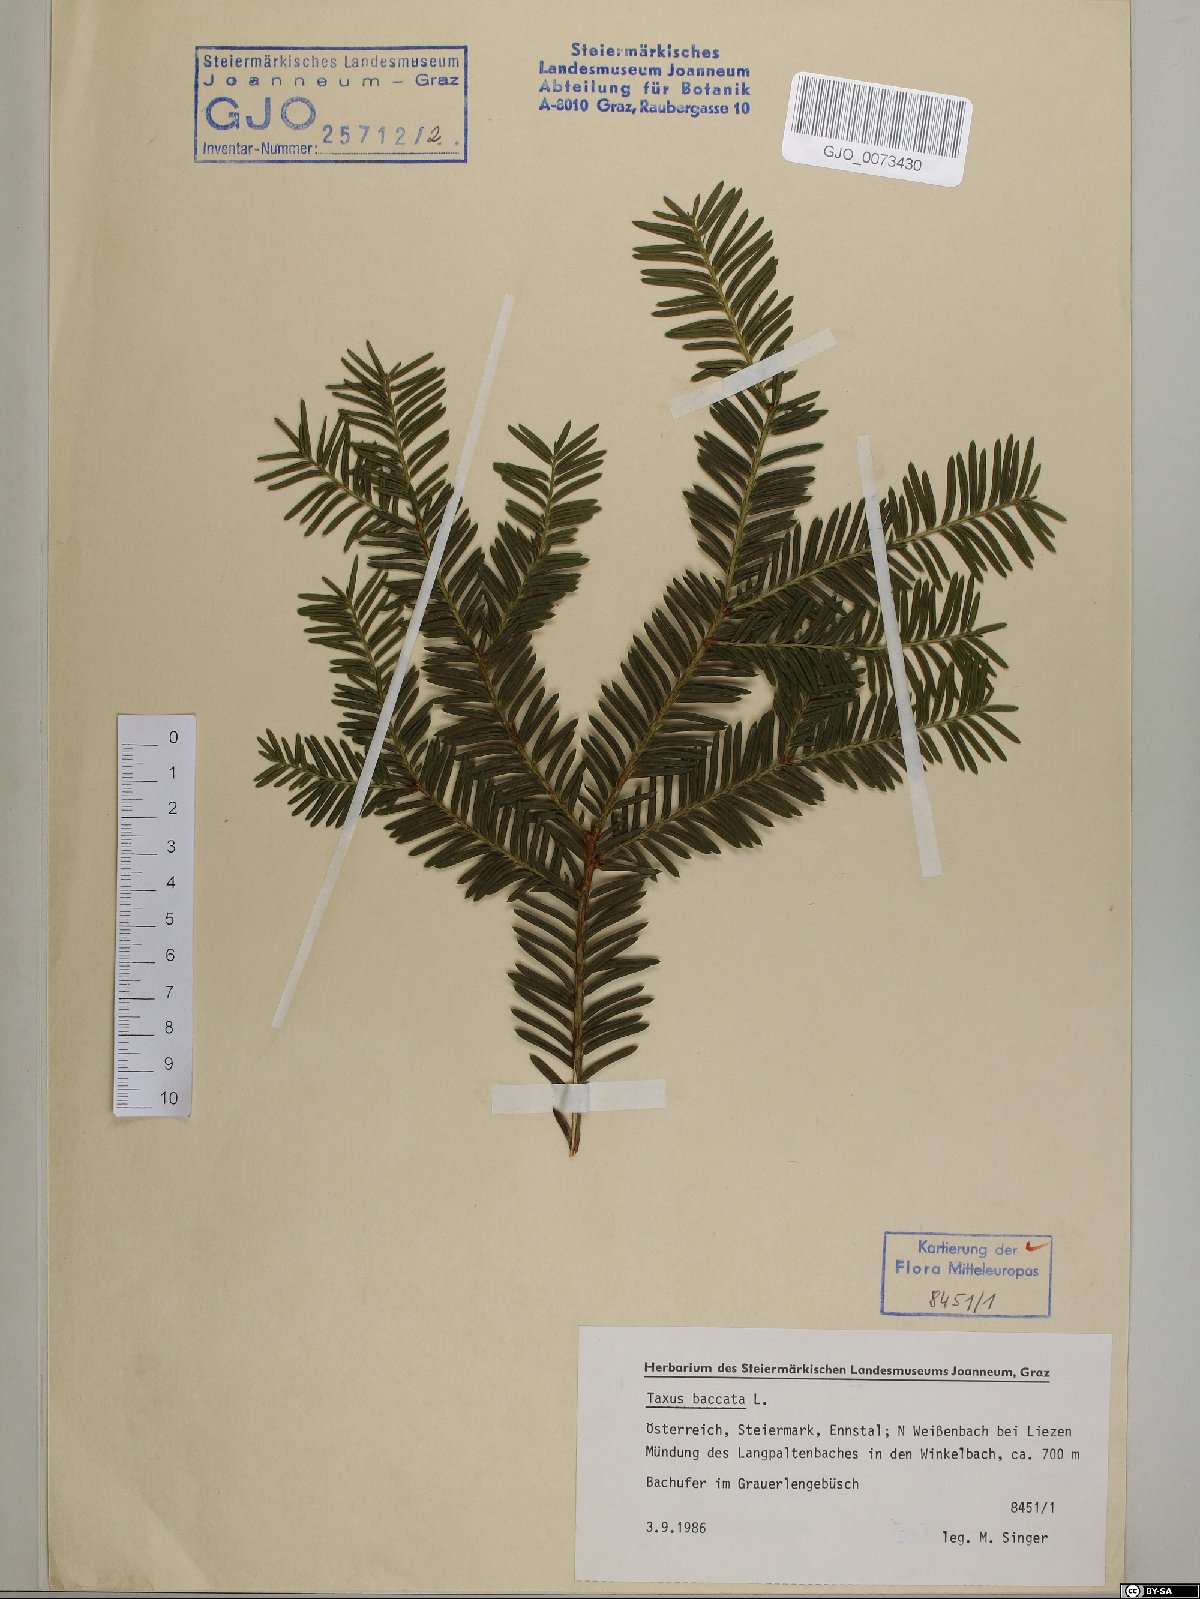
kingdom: Plantae
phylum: Tracheophyta
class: Pinopsida
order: Pinales
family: Taxaceae
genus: Taxus
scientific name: Taxus baccata
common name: Yew
